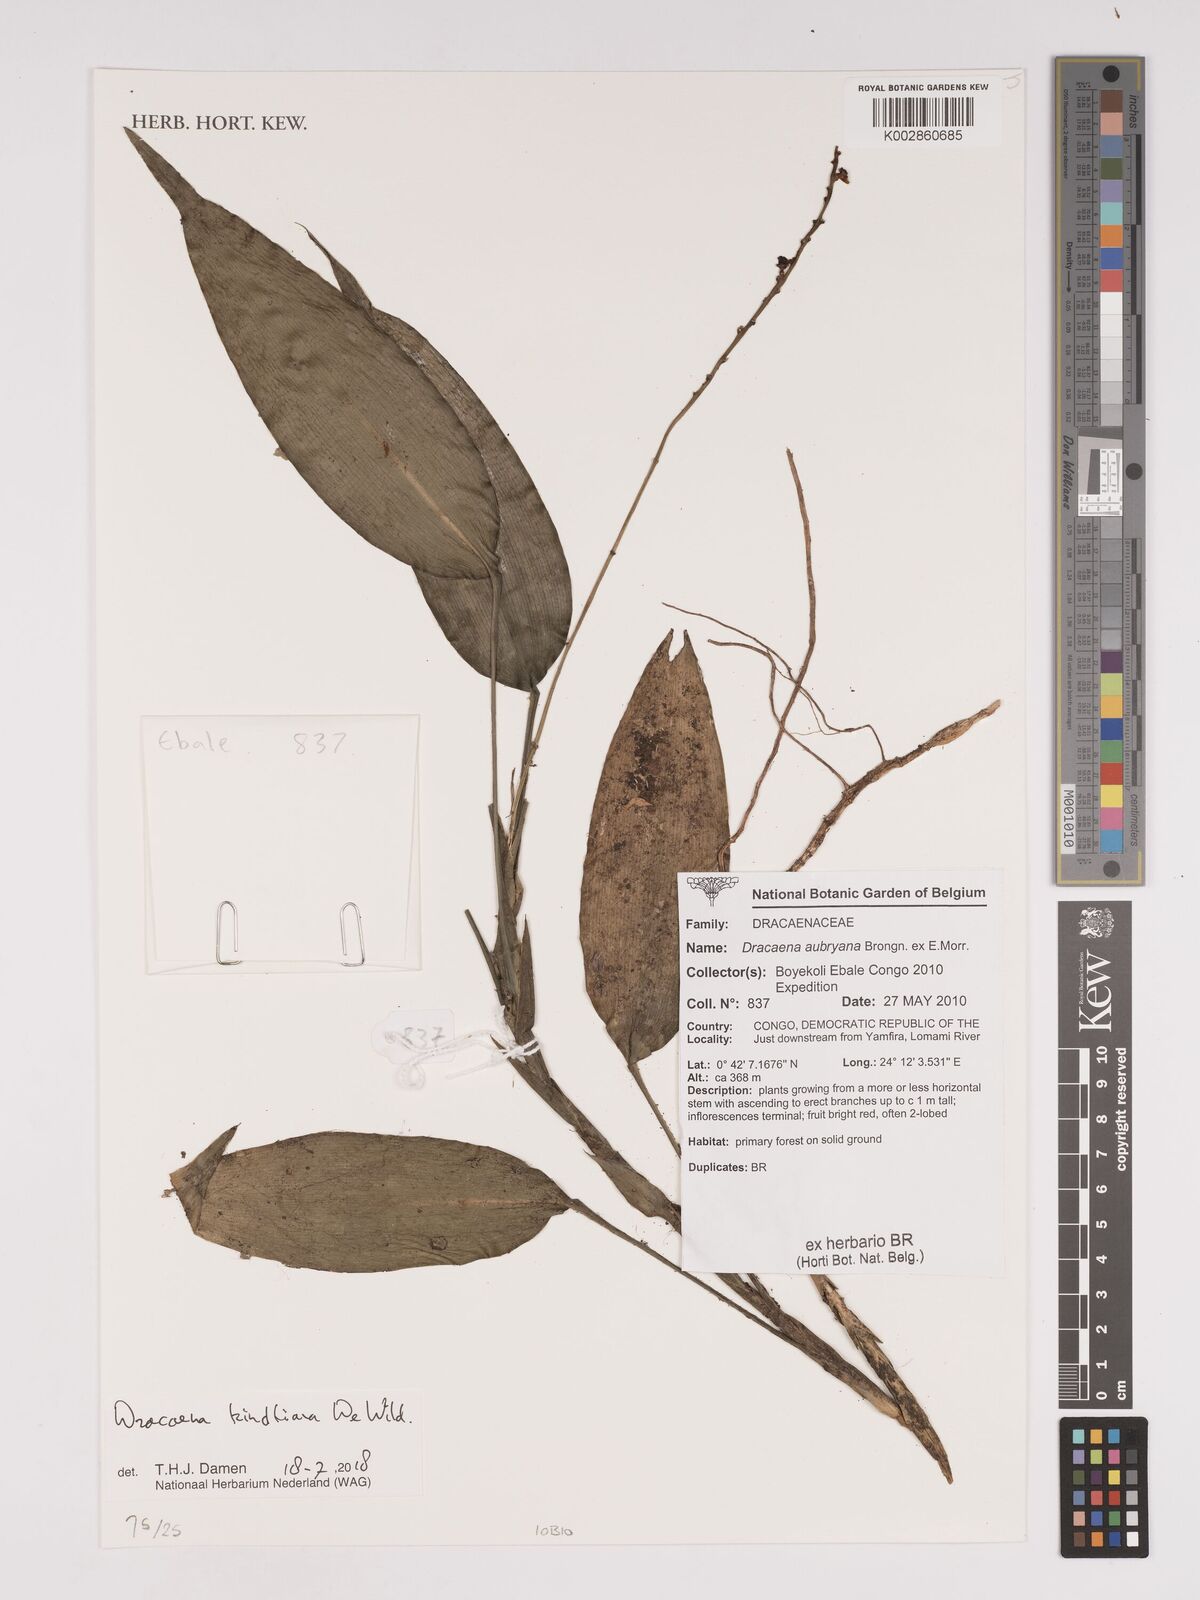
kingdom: Plantae
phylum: Tracheophyta
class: Liliopsida
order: Asparagales
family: Asparagaceae
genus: Dracaena
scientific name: Dracaena kindtiana
